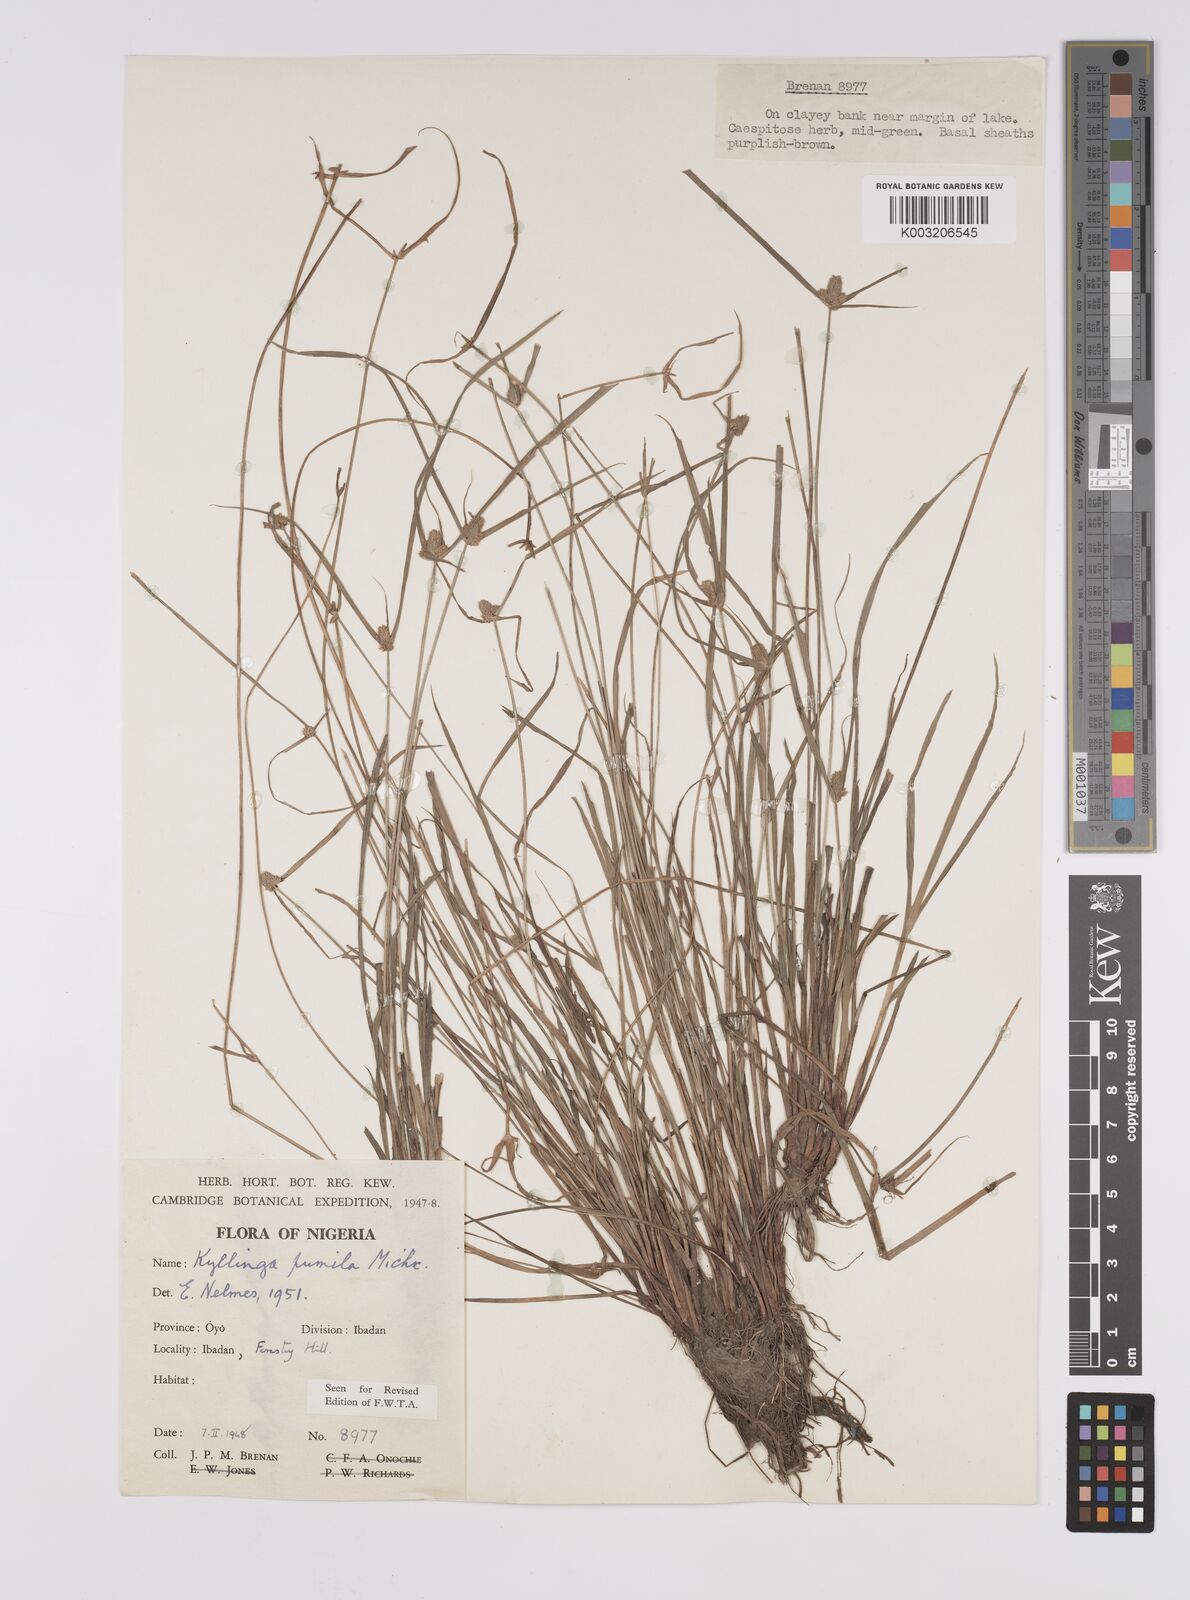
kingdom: Plantae
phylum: Tracheophyta
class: Liliopsida
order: Poales
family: Cyperaceae
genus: Cyperus
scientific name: Cyperus
